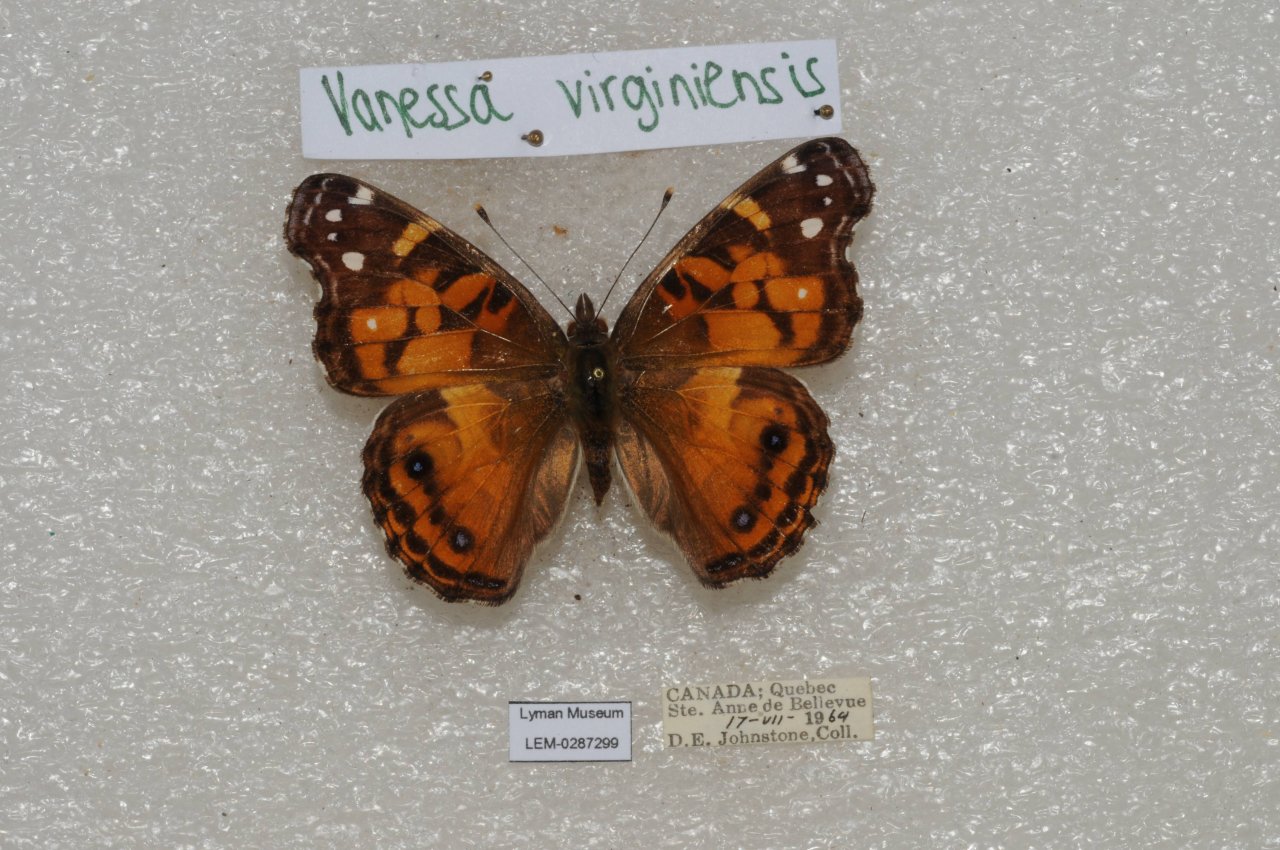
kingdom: Animalia
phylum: Arthropoda
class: Insecta
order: Lepidoptera
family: Nymphalidae
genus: Vanessa
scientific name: Vanessa virginiensis
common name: American Lady
